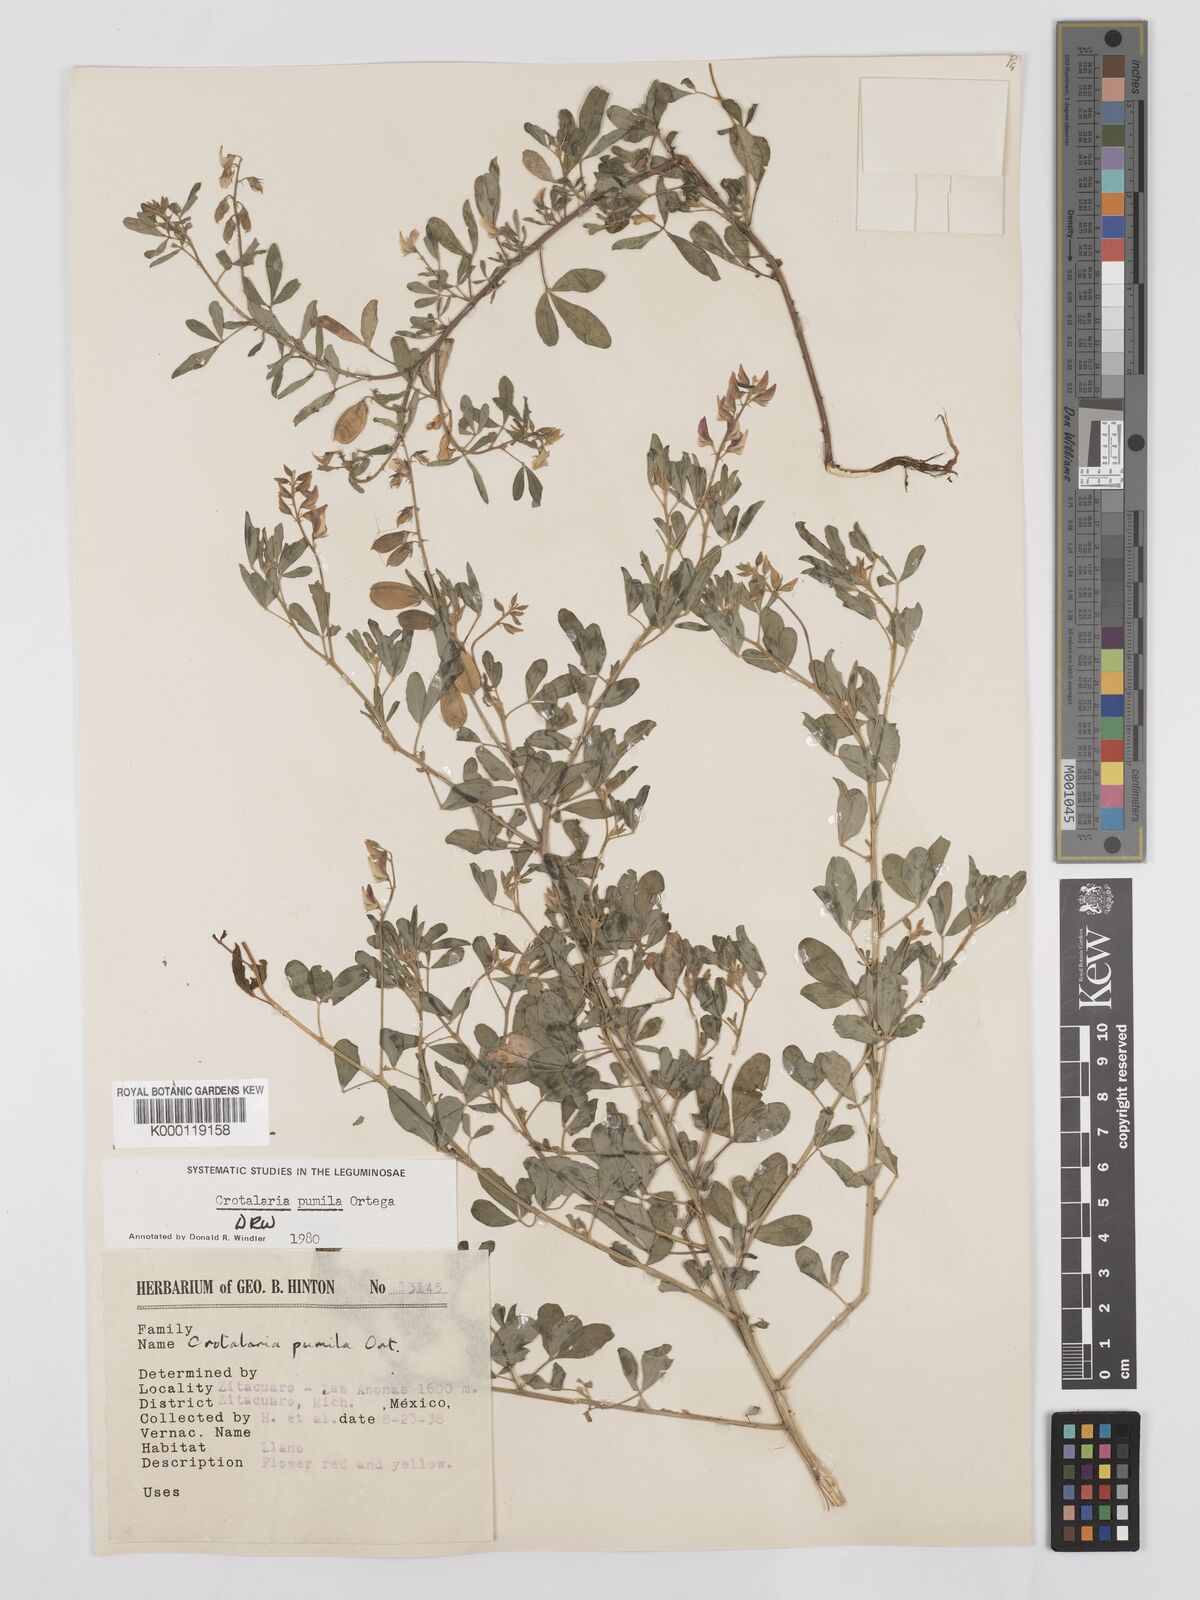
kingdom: Plantae
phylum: Tracheophyta
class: Magnoliopsida
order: Fabales
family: Fabaceae
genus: Crotalaria
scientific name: Crotalaria pumila
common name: Low rattlebox
